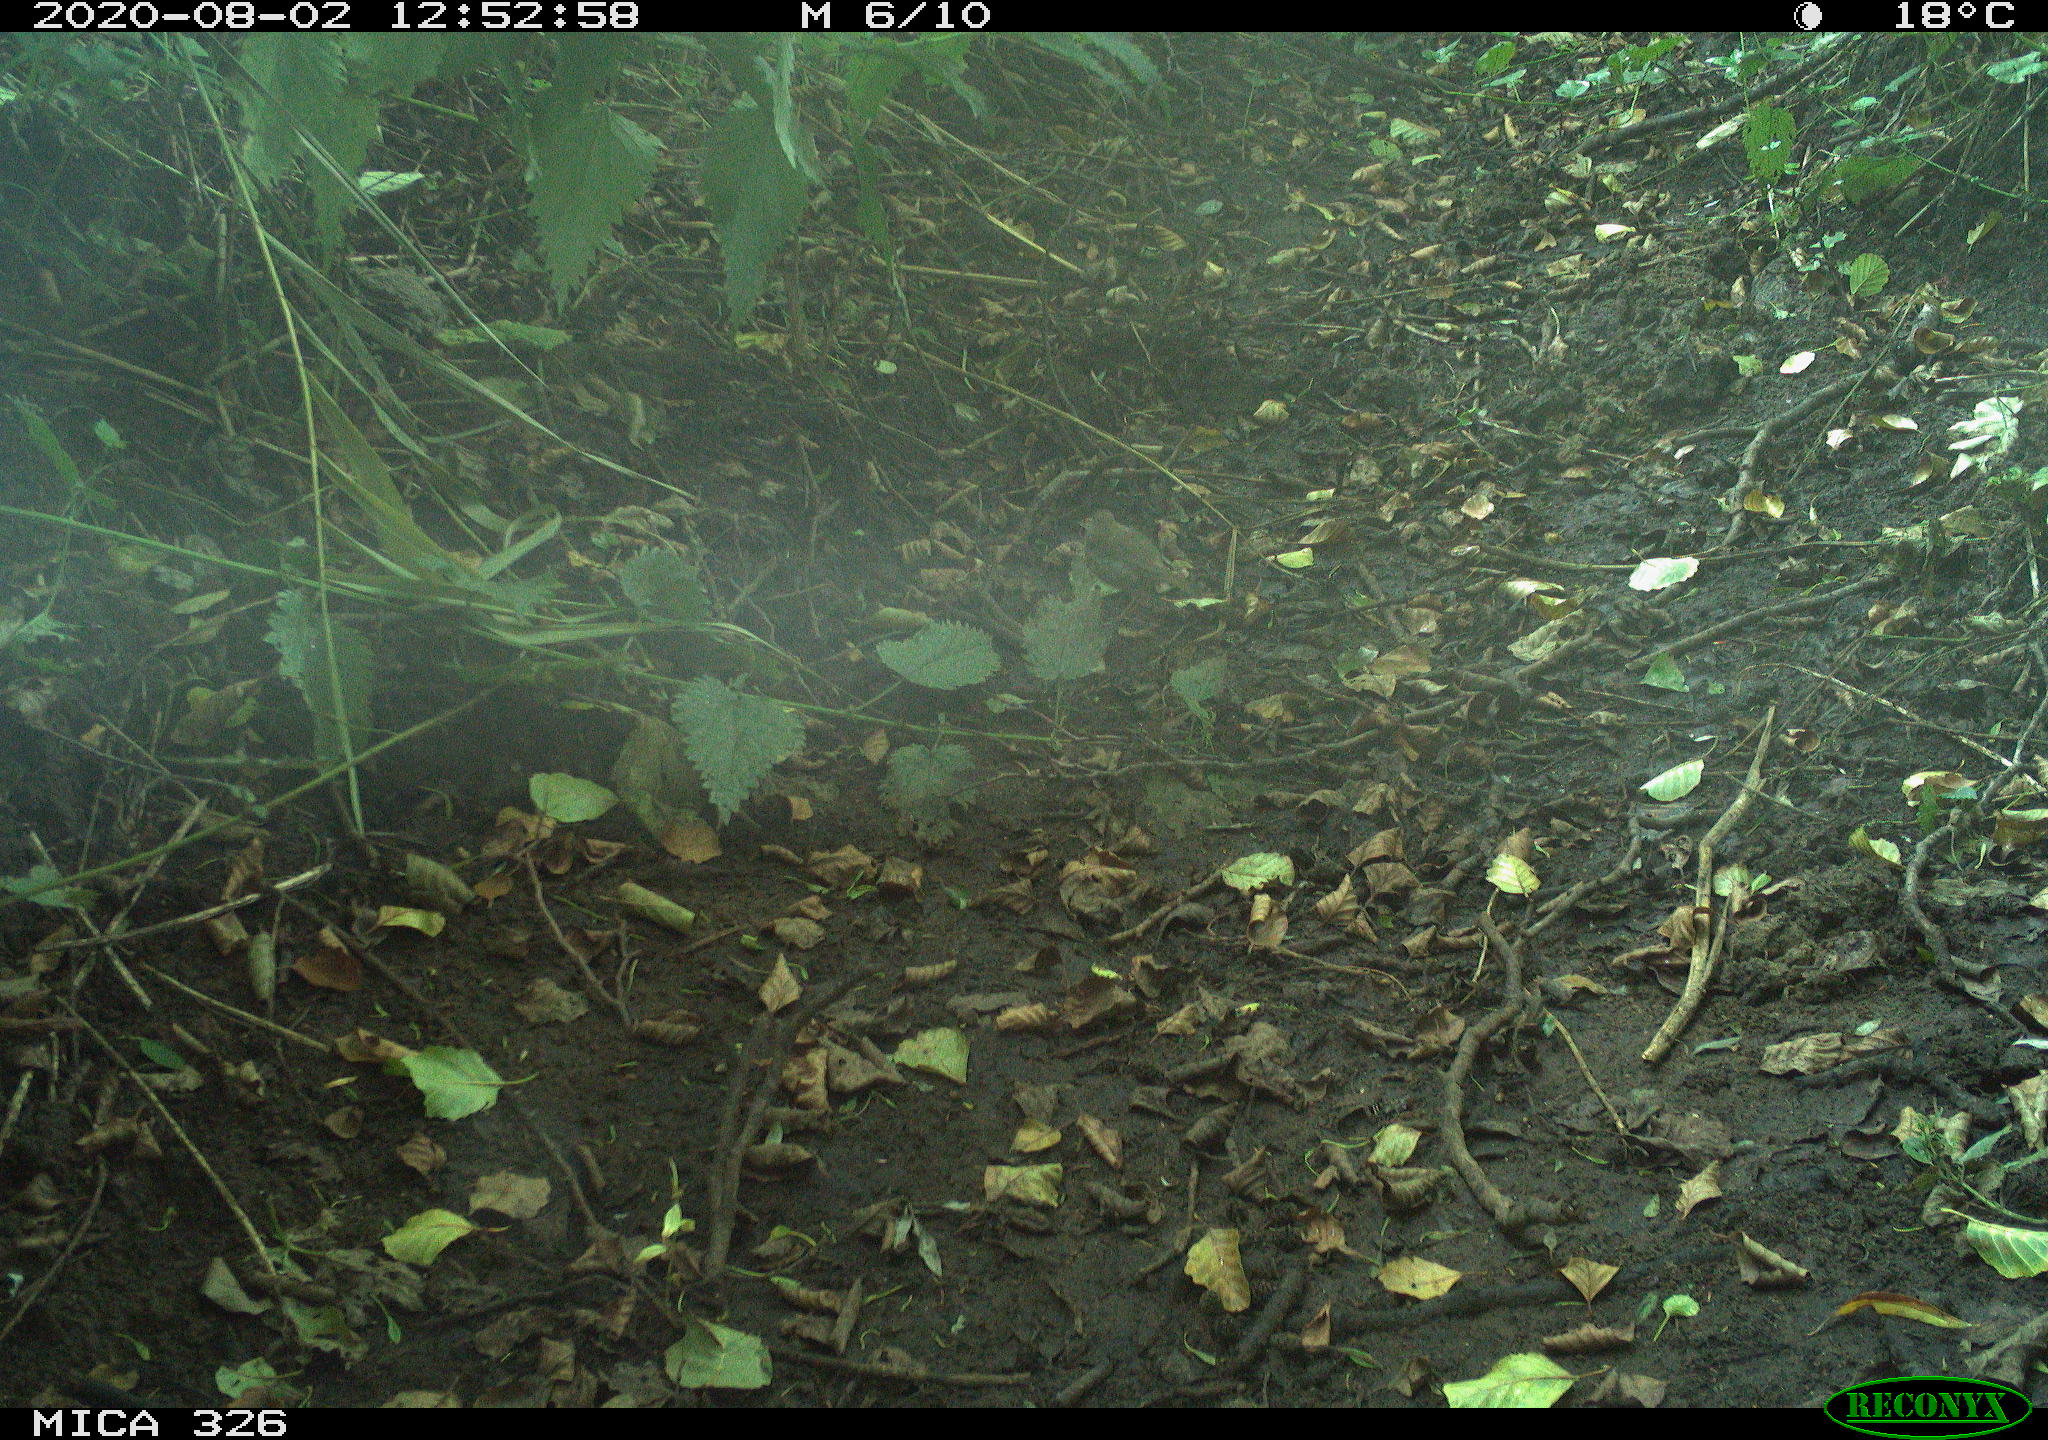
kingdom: Animalia
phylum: Chordata
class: Aves
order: Passeriformes
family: Muscicapidae
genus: Erithacus
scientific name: Erithacus rubecula
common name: European robin
